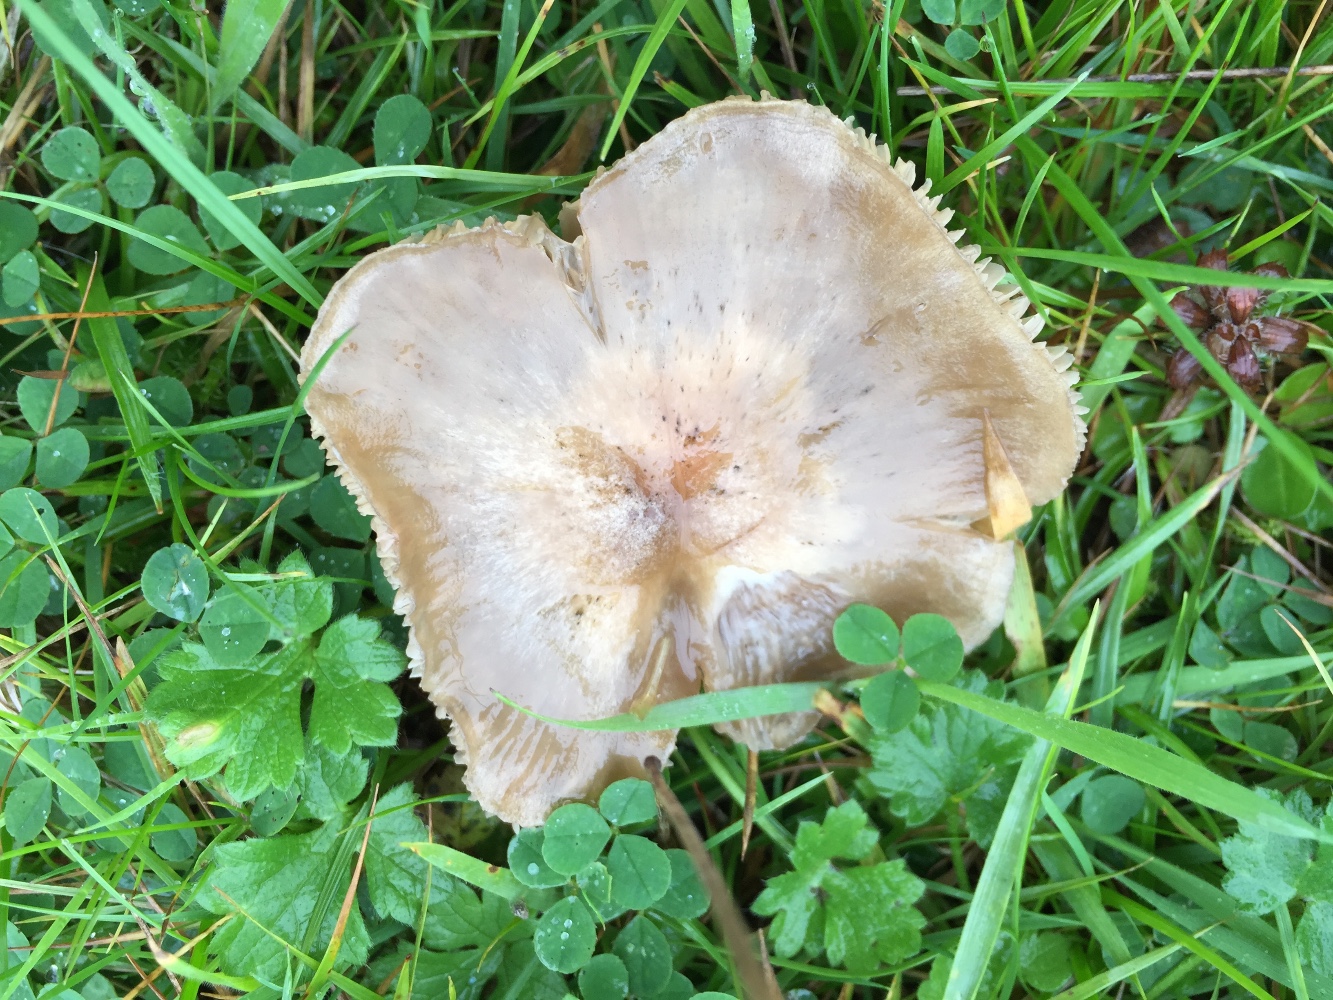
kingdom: Fungi
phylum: Basidiomycota
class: Agaricomycetes
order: Agaricales
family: Entolomataceae
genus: Entoloma
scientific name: Entoloma prunuloides
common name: mel-rødblad
